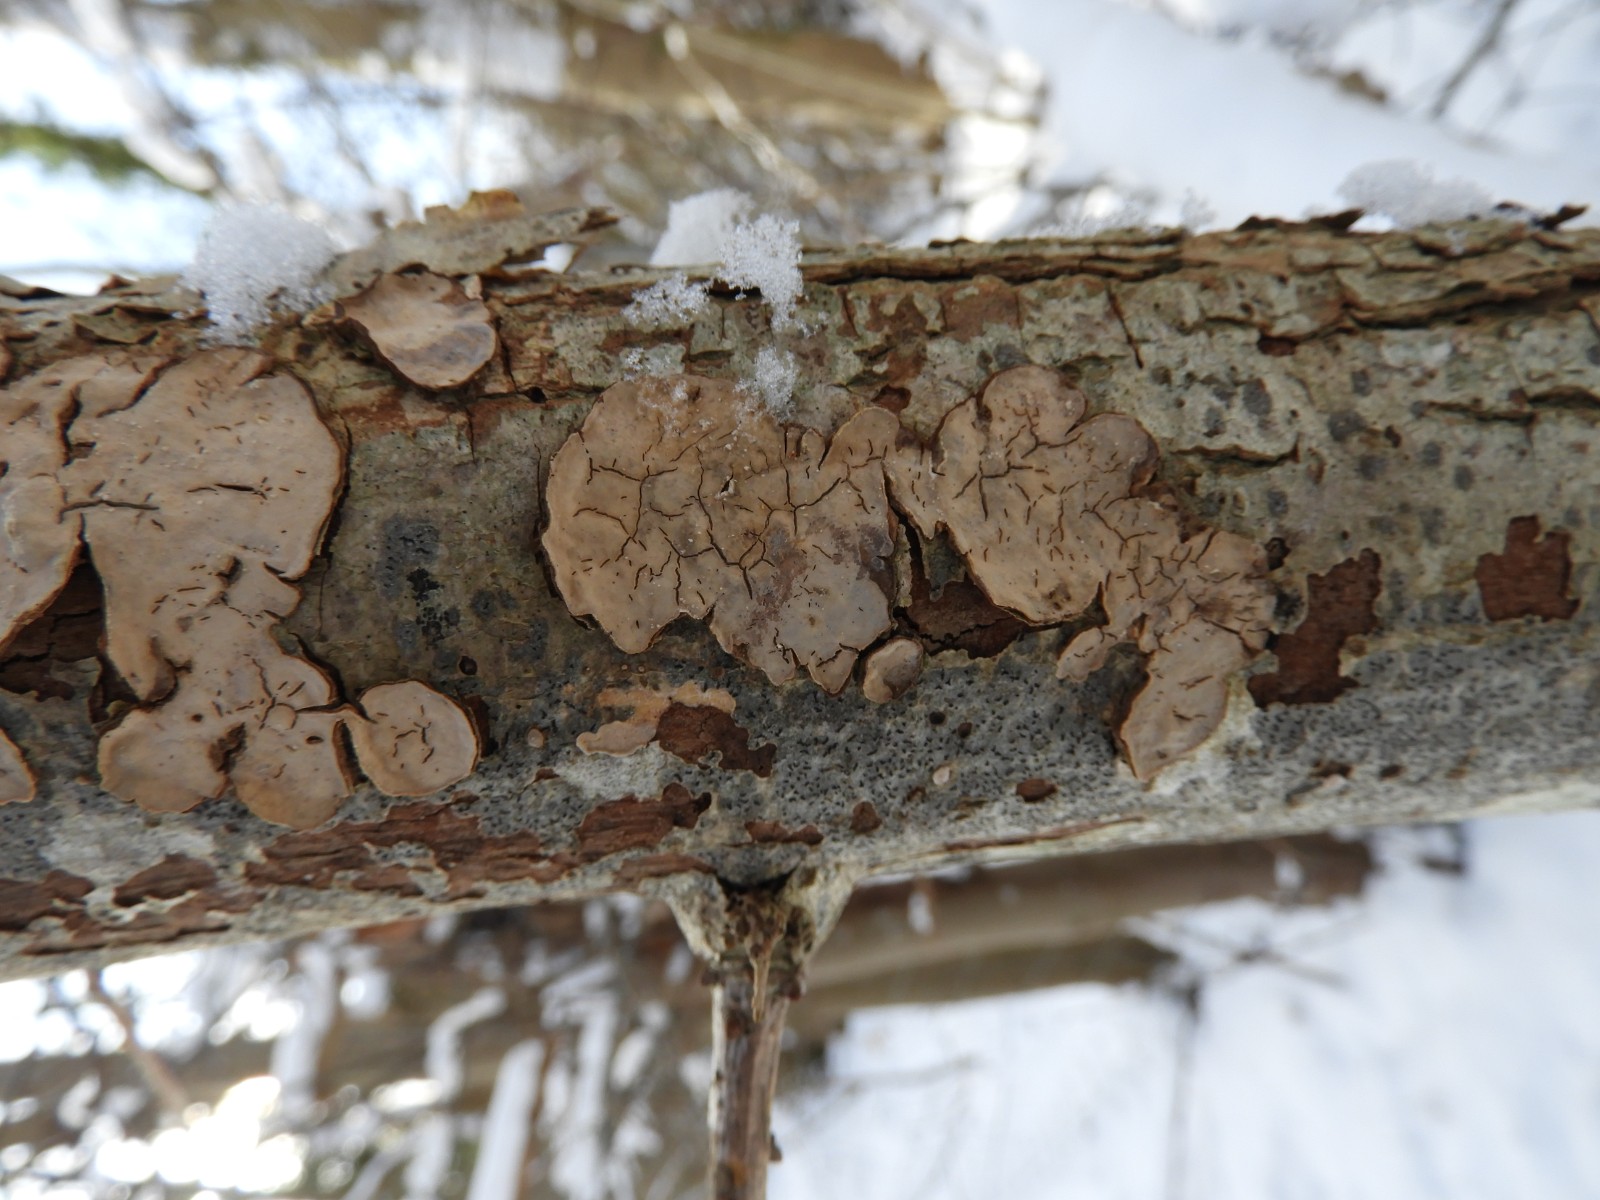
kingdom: Fungi
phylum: Basidiomycota
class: Agaricomycetes
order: Agaricales
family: Physalacriaceae
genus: Cylindrobasidium
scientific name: Cylindrobasidium evolvens
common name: sprækkehinde
